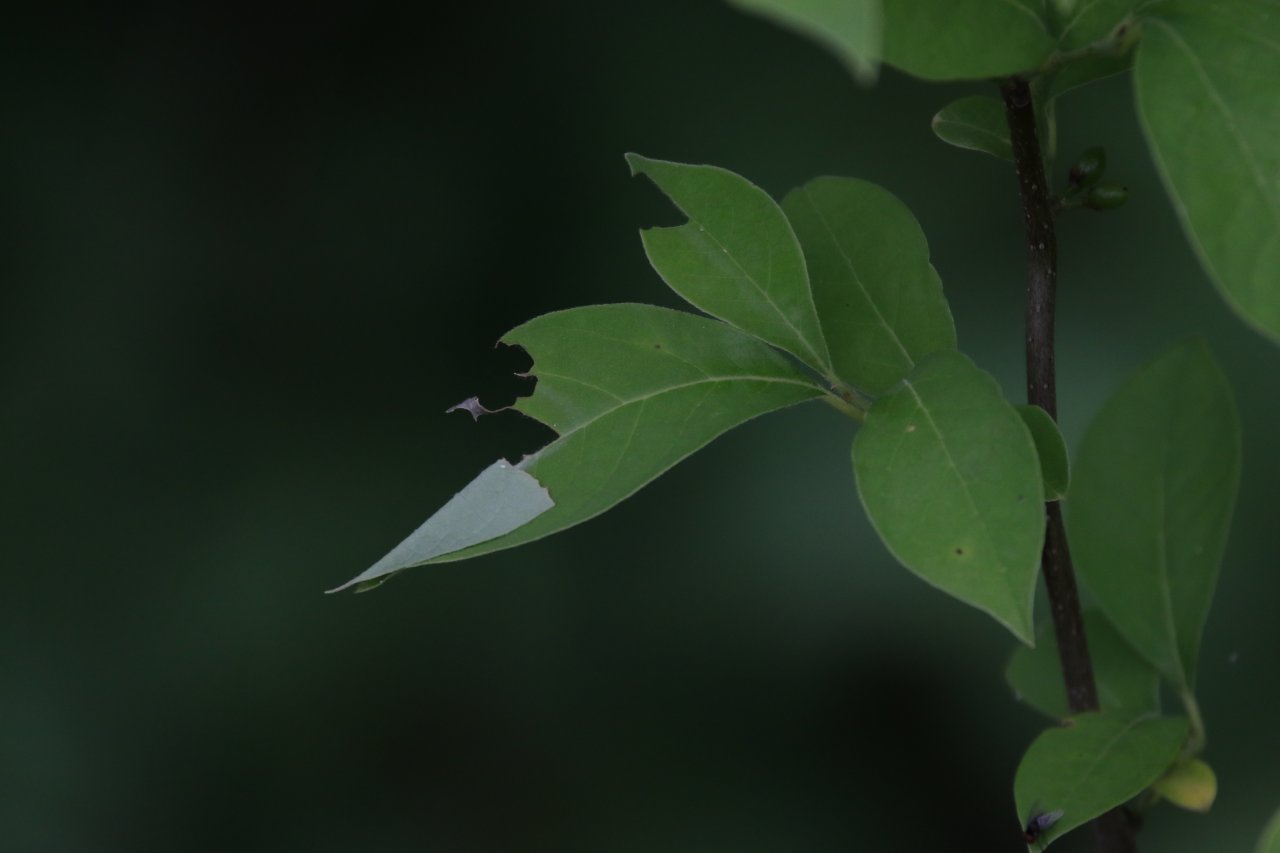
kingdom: Animalia
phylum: Arthropoda
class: Insecta
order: Lepidoptera
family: Papilionidae
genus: Pterourus
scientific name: Pterourus troilus
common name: Spicebush Swallowtail
